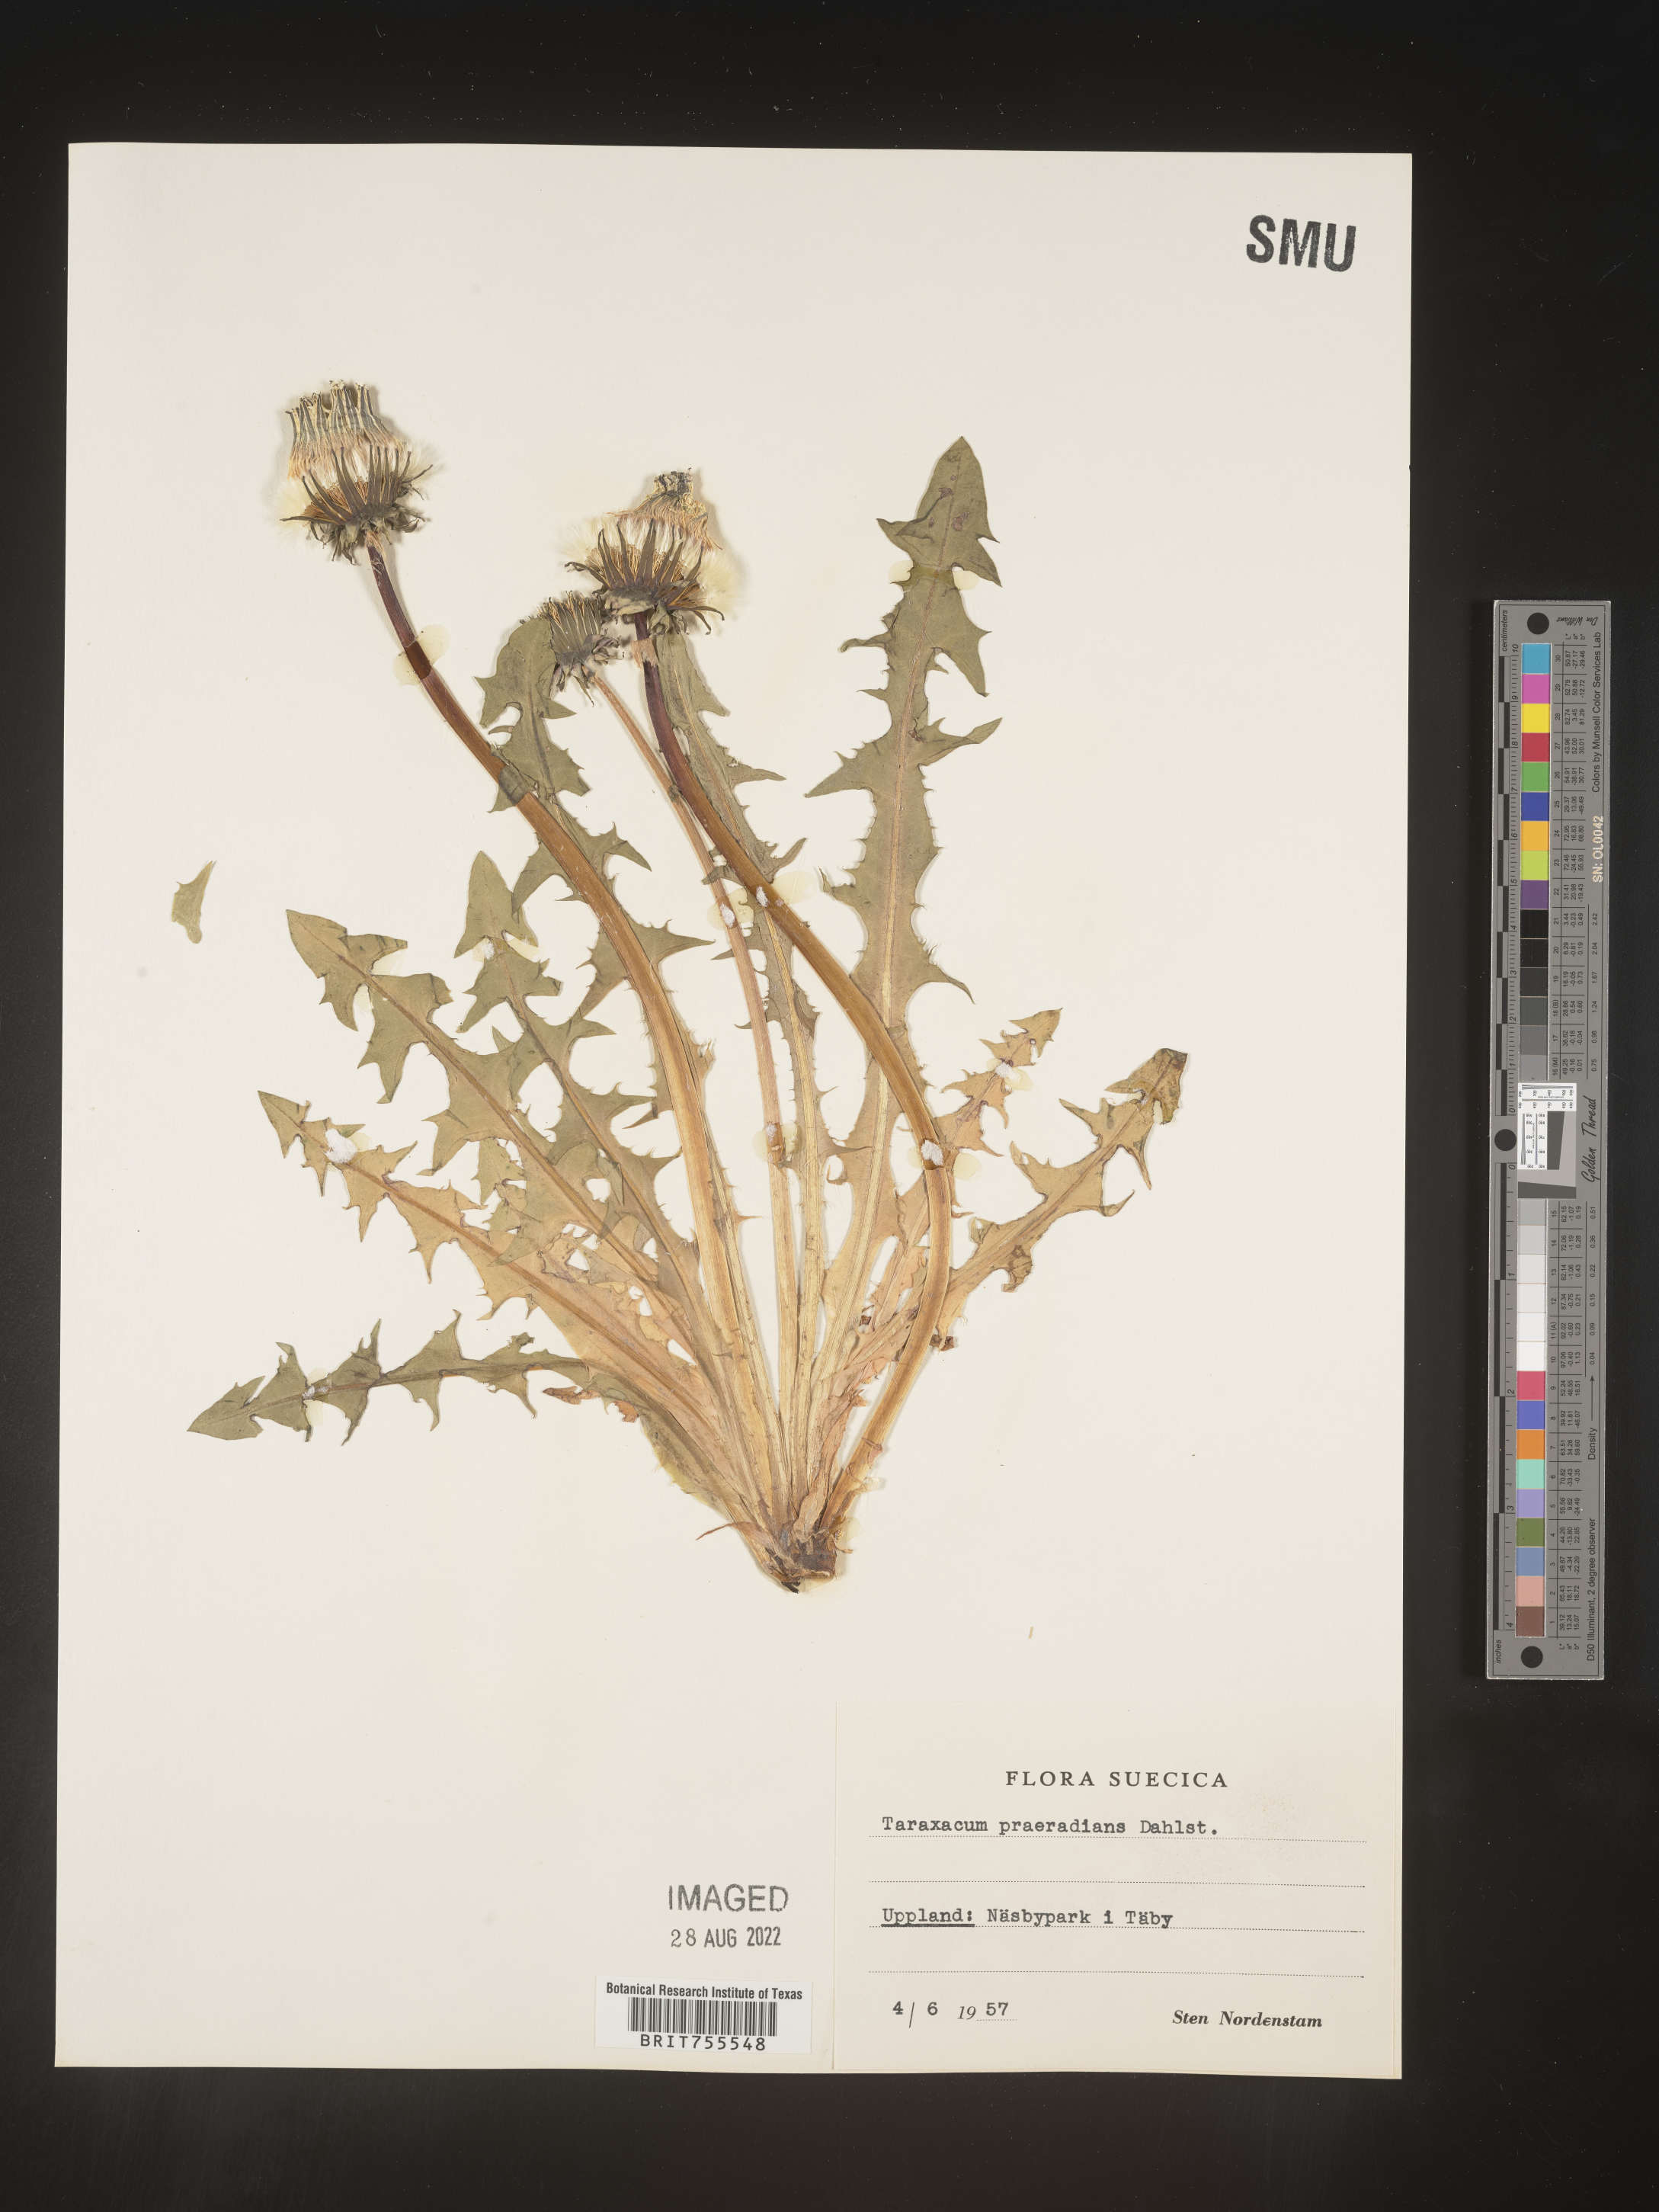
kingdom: Plantae
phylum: Tracheophyta
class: Magnoliopsida
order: Asterales
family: Asteraceae
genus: Taraxacum
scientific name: Taraxacum
